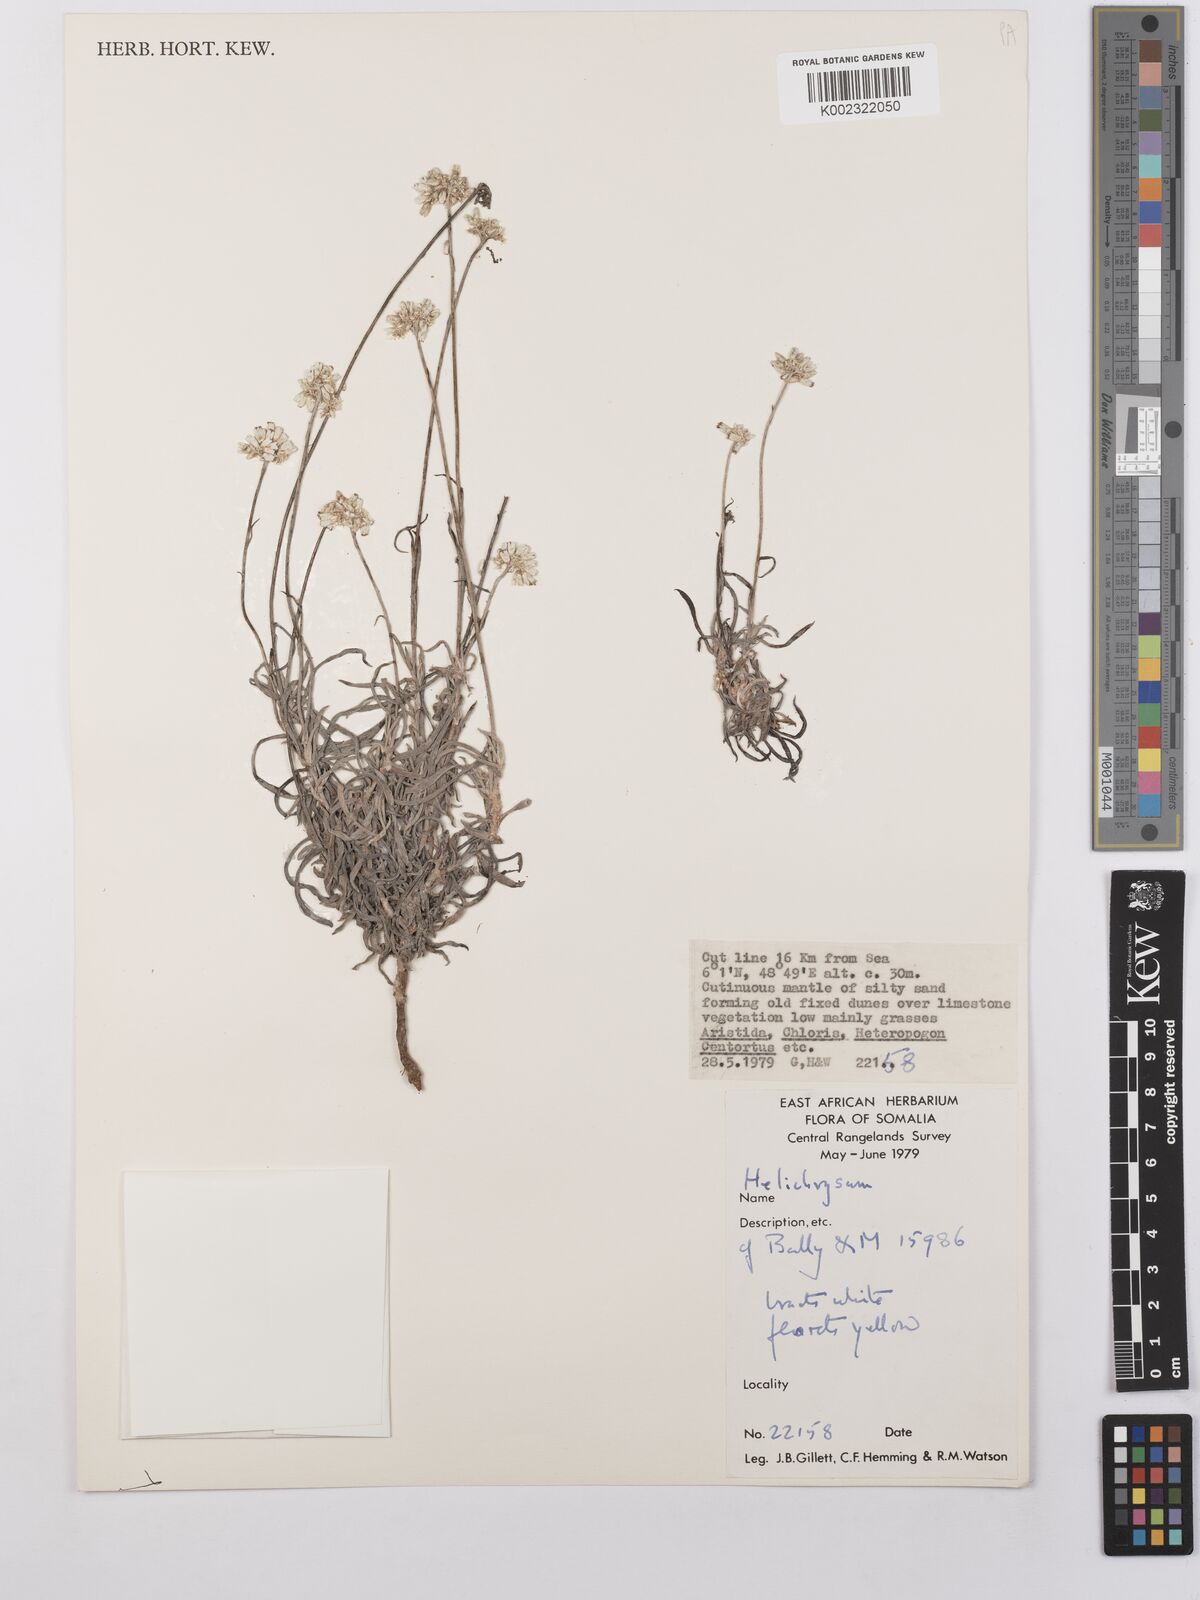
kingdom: Plantae
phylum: Tracheophyta
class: Magnoliopsida
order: Asterales
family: Asteraceae
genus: Helichrysum
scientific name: Helichrysum glumaceum
